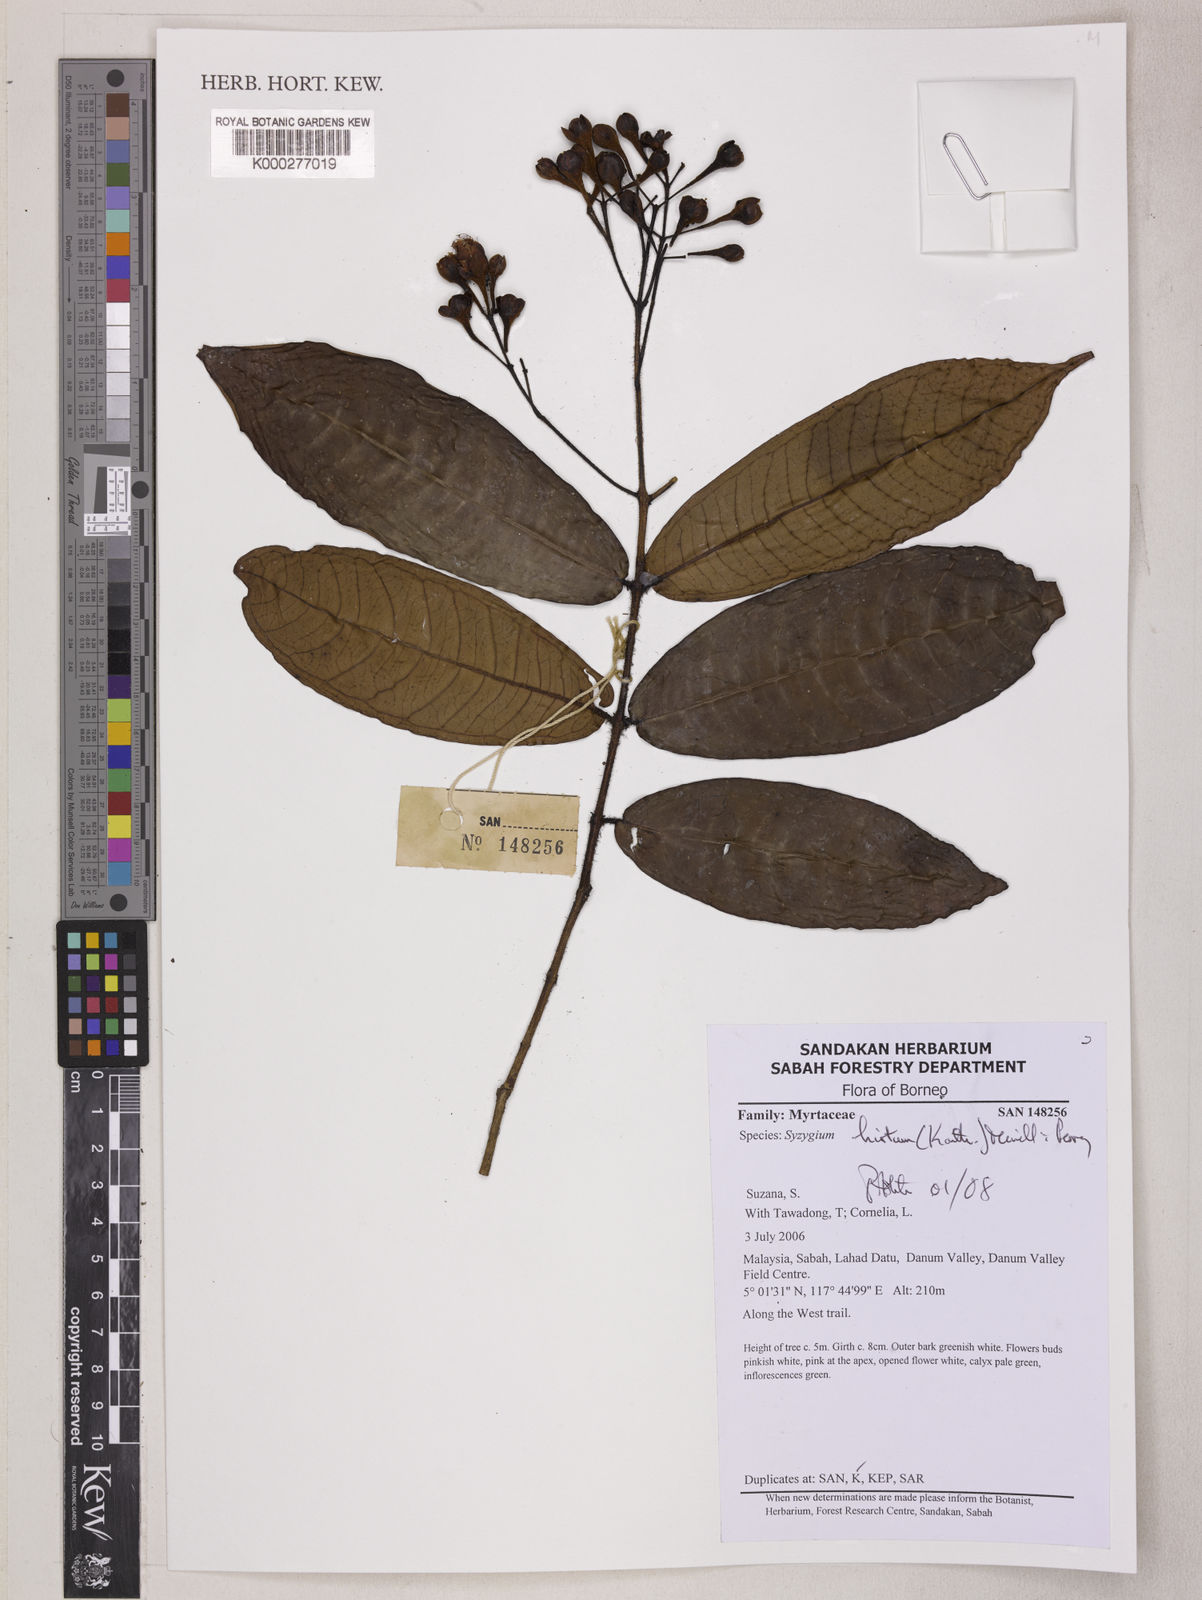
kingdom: Plantae
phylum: Tracheophyta
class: Magnoliopsida
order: Myrtales
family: Myrtaceae
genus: Syzygium
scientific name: Syzygium hirtum
